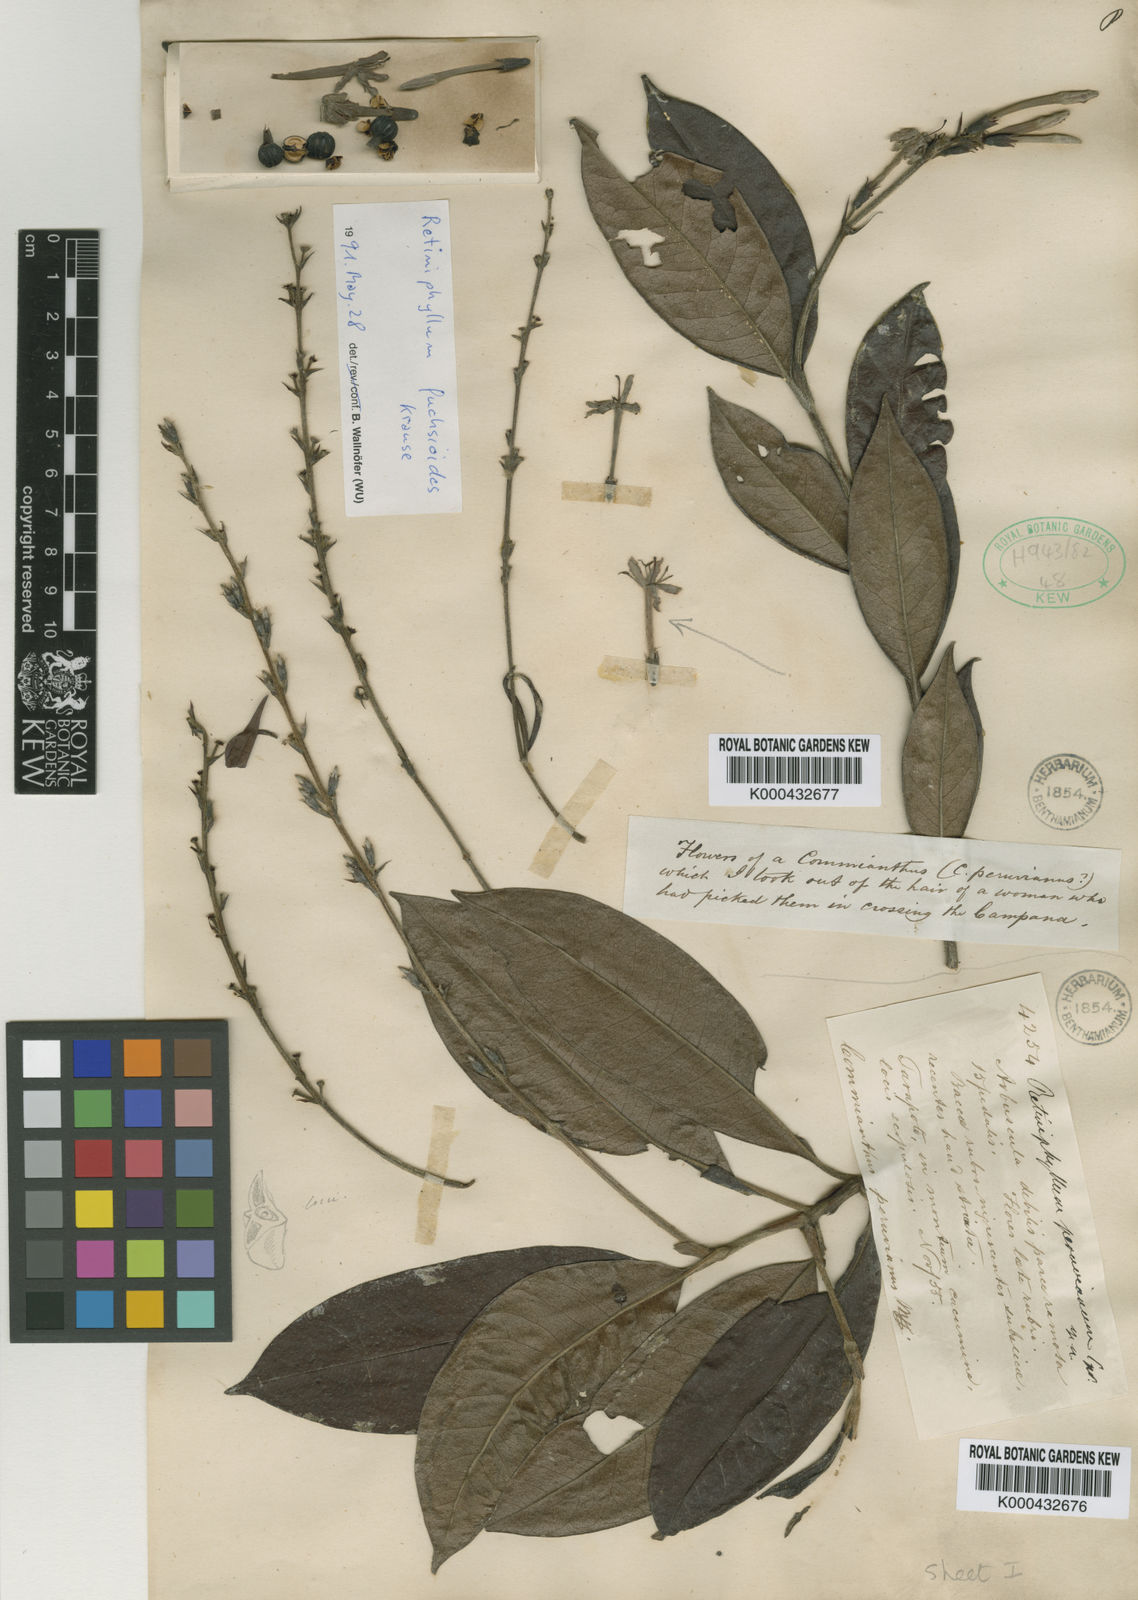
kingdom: Plantae
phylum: Tracheophyta
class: Magnoliopsida
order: Gentianales
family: Rubiaceae
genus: Botryarrhena
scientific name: Botryarrhena pendula
